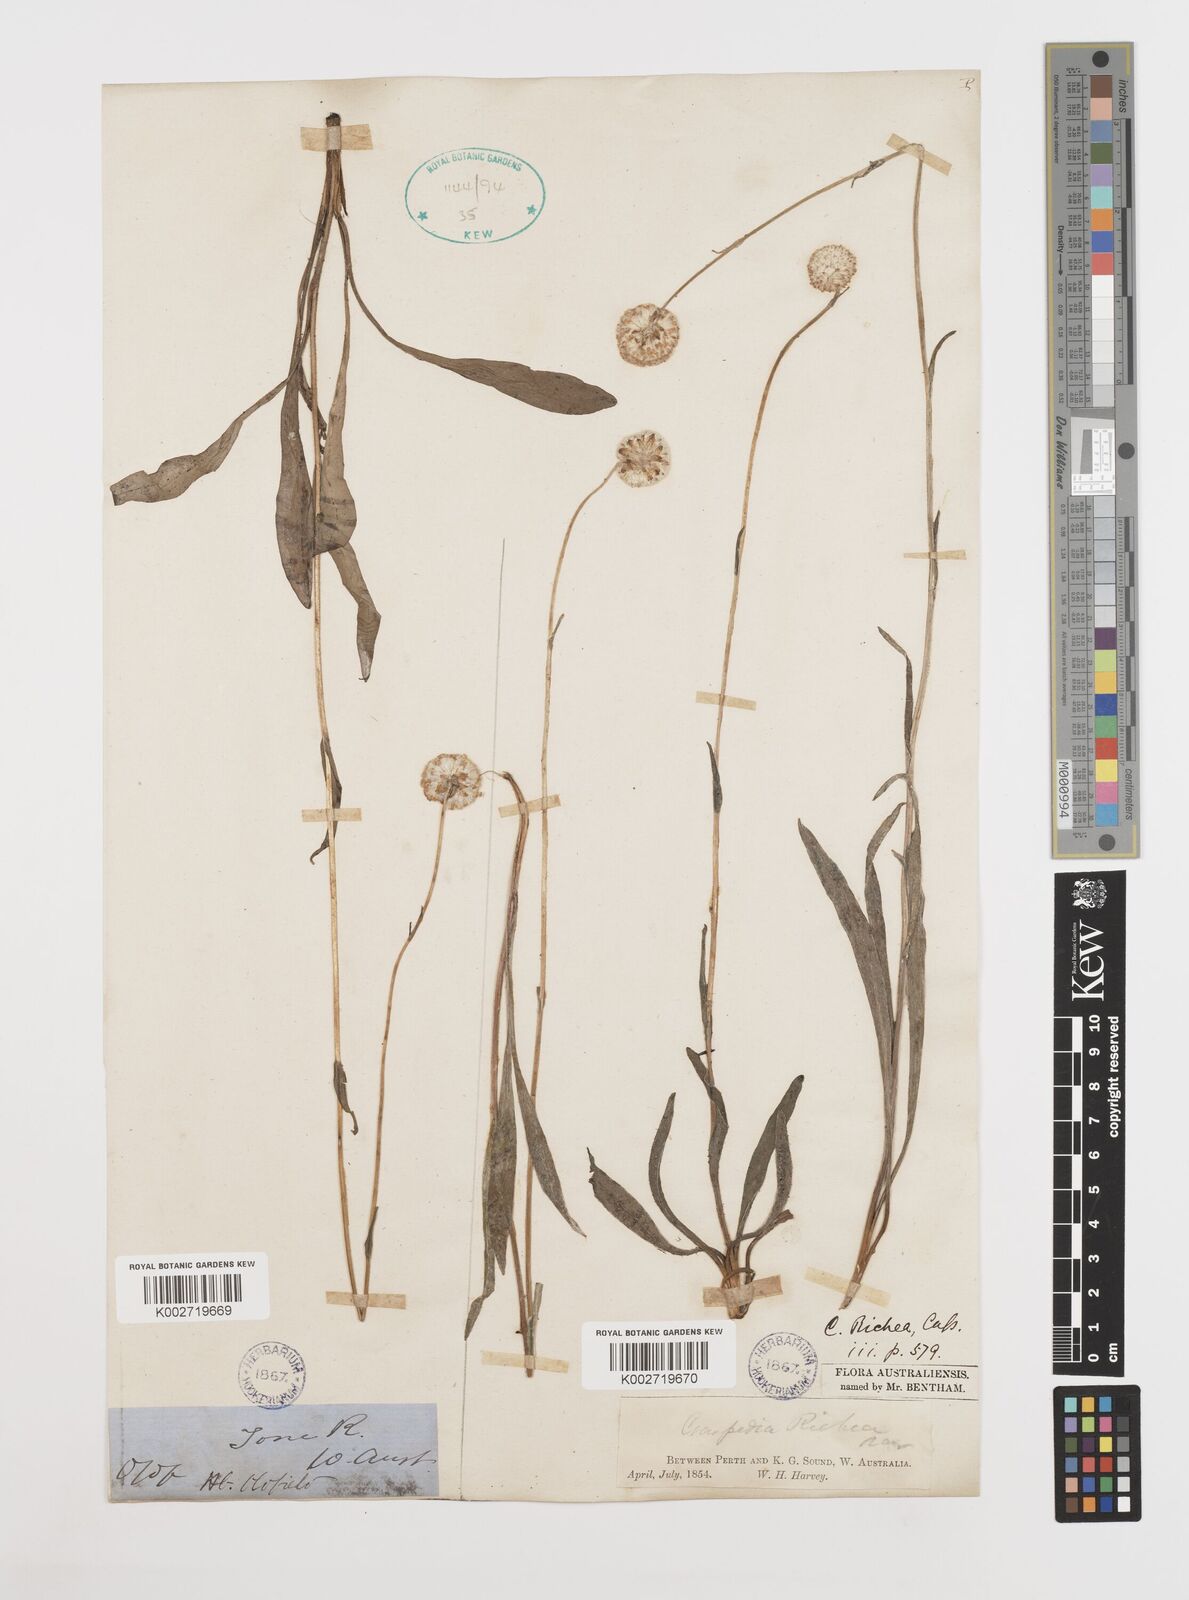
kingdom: Plantae
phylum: Tracheophyta
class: Magnoliopsida
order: Asterales
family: Asteraceae
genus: Craspedia
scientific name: Craspedia glauca
